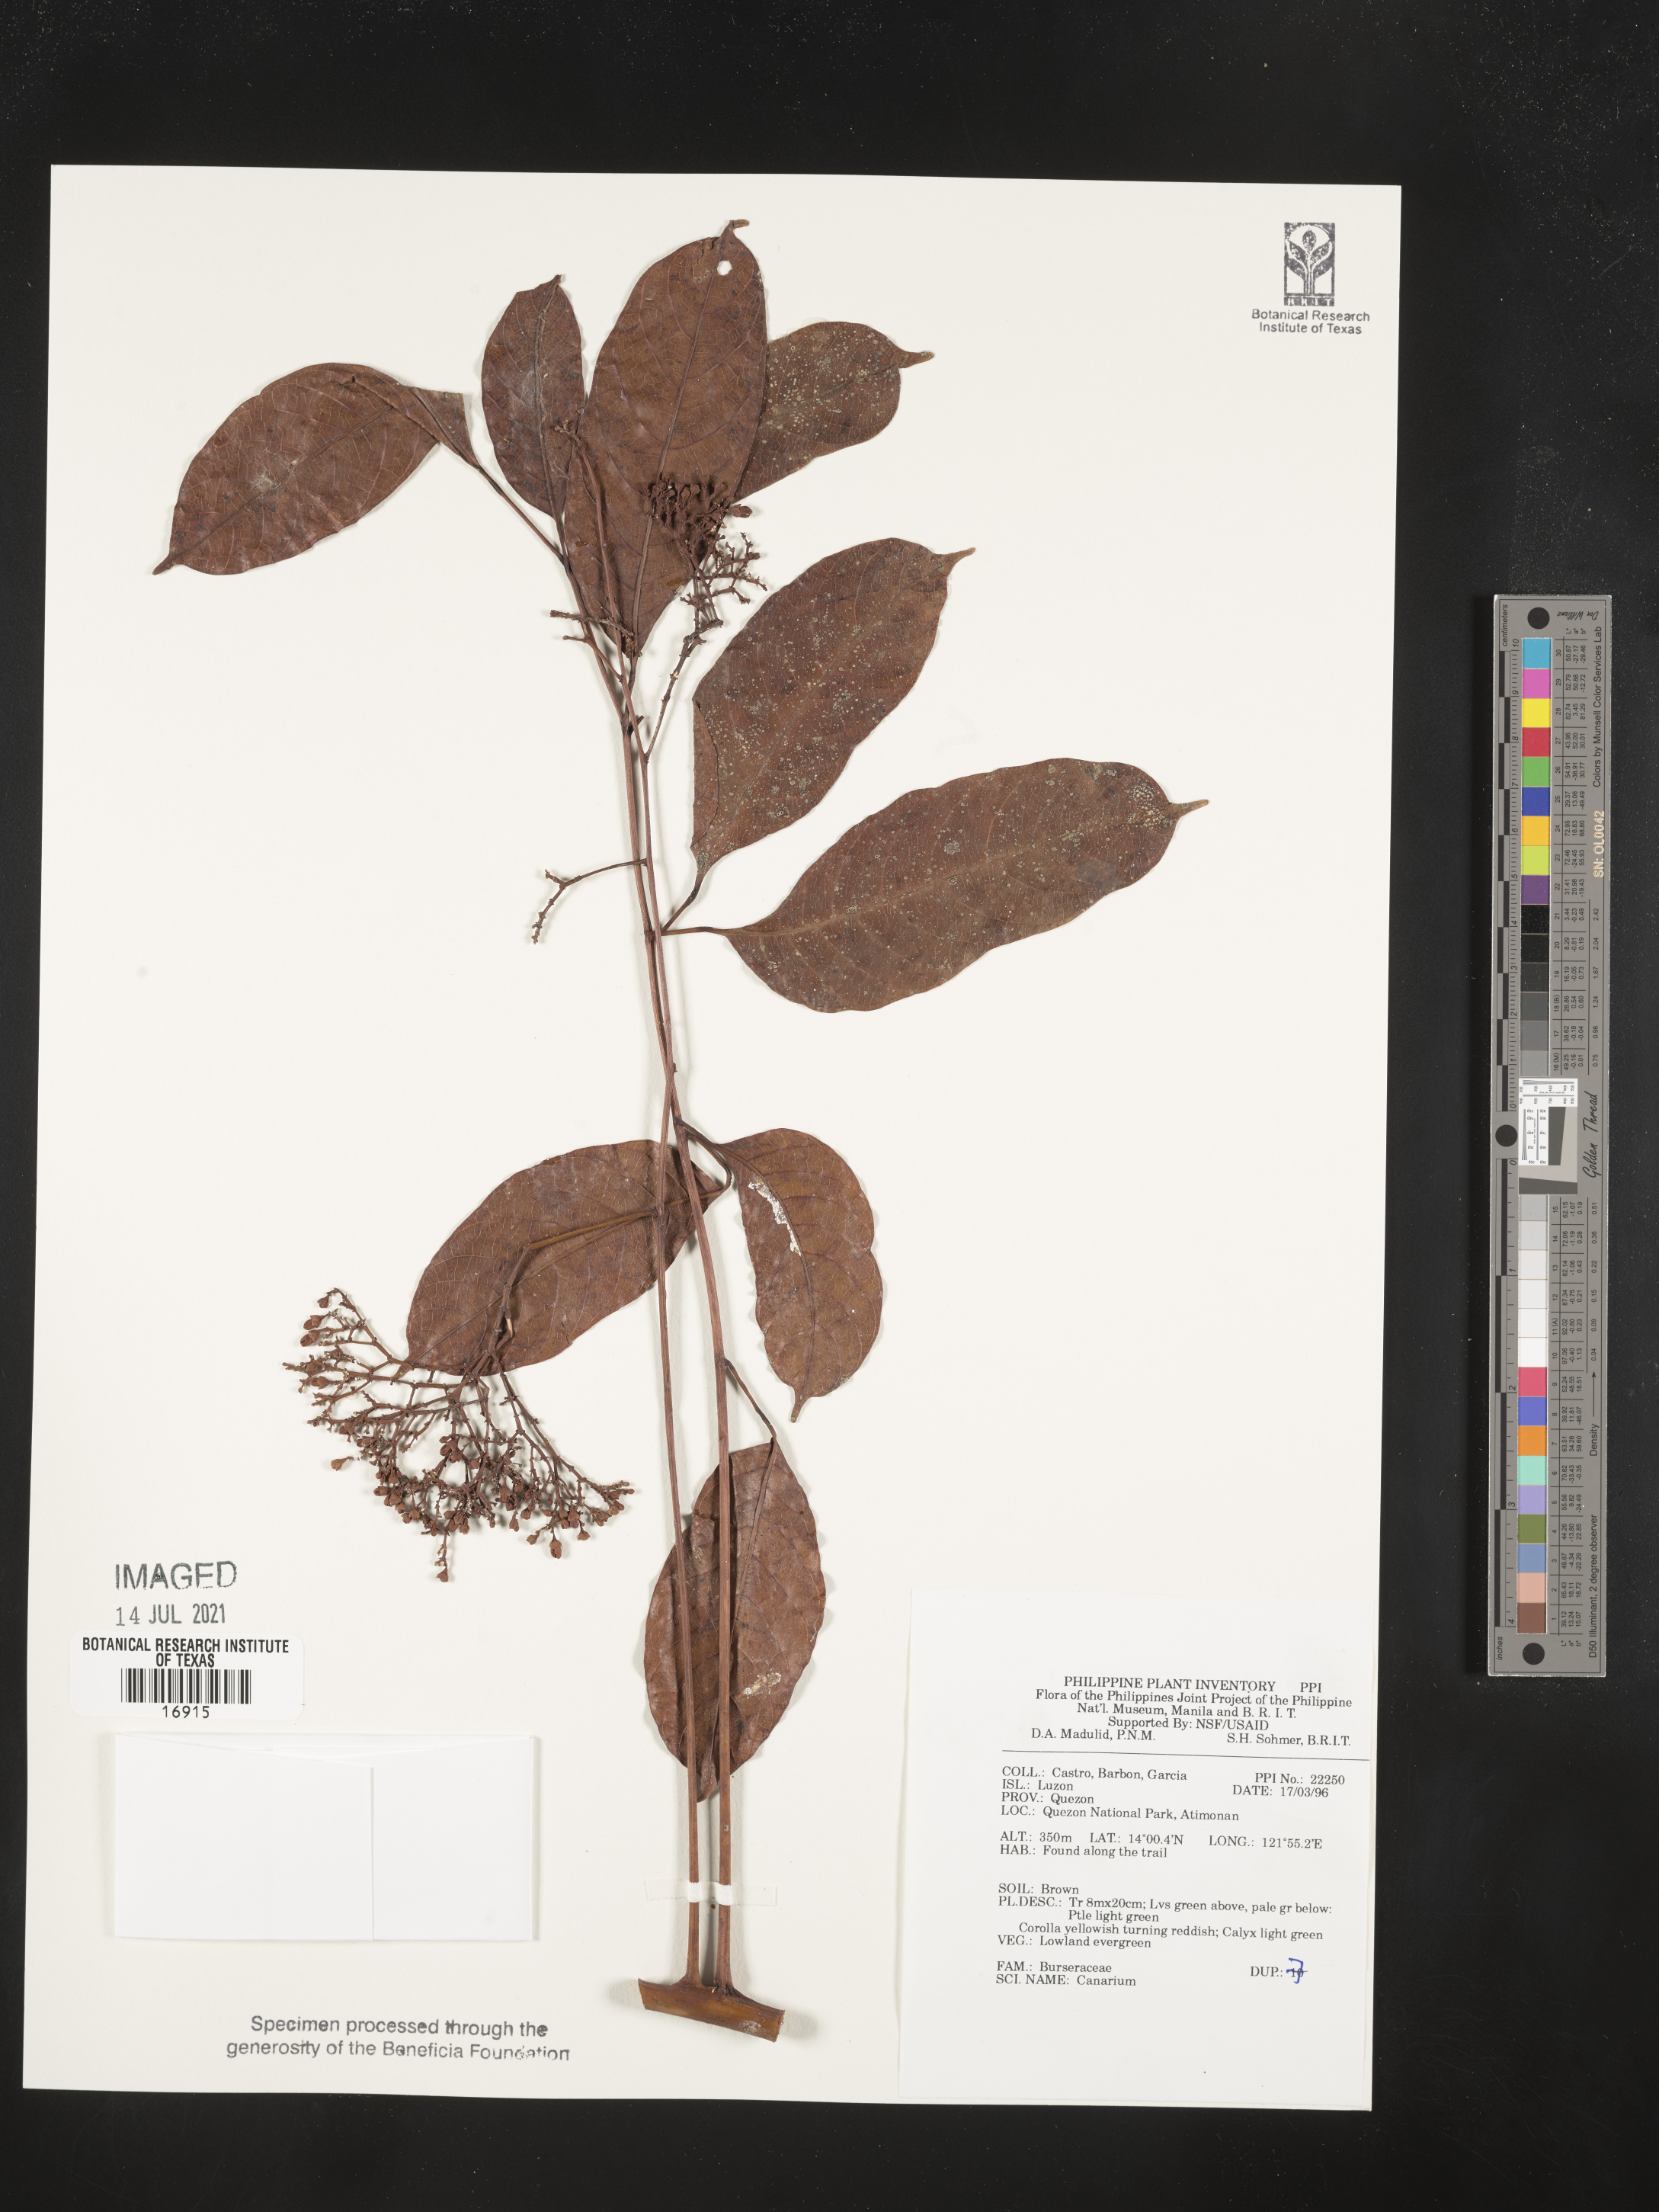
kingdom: Plantae
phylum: Tracheophyta
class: Magnoliopsida
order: Sapindales
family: Burseraceae
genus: Canarium
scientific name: Canarium
